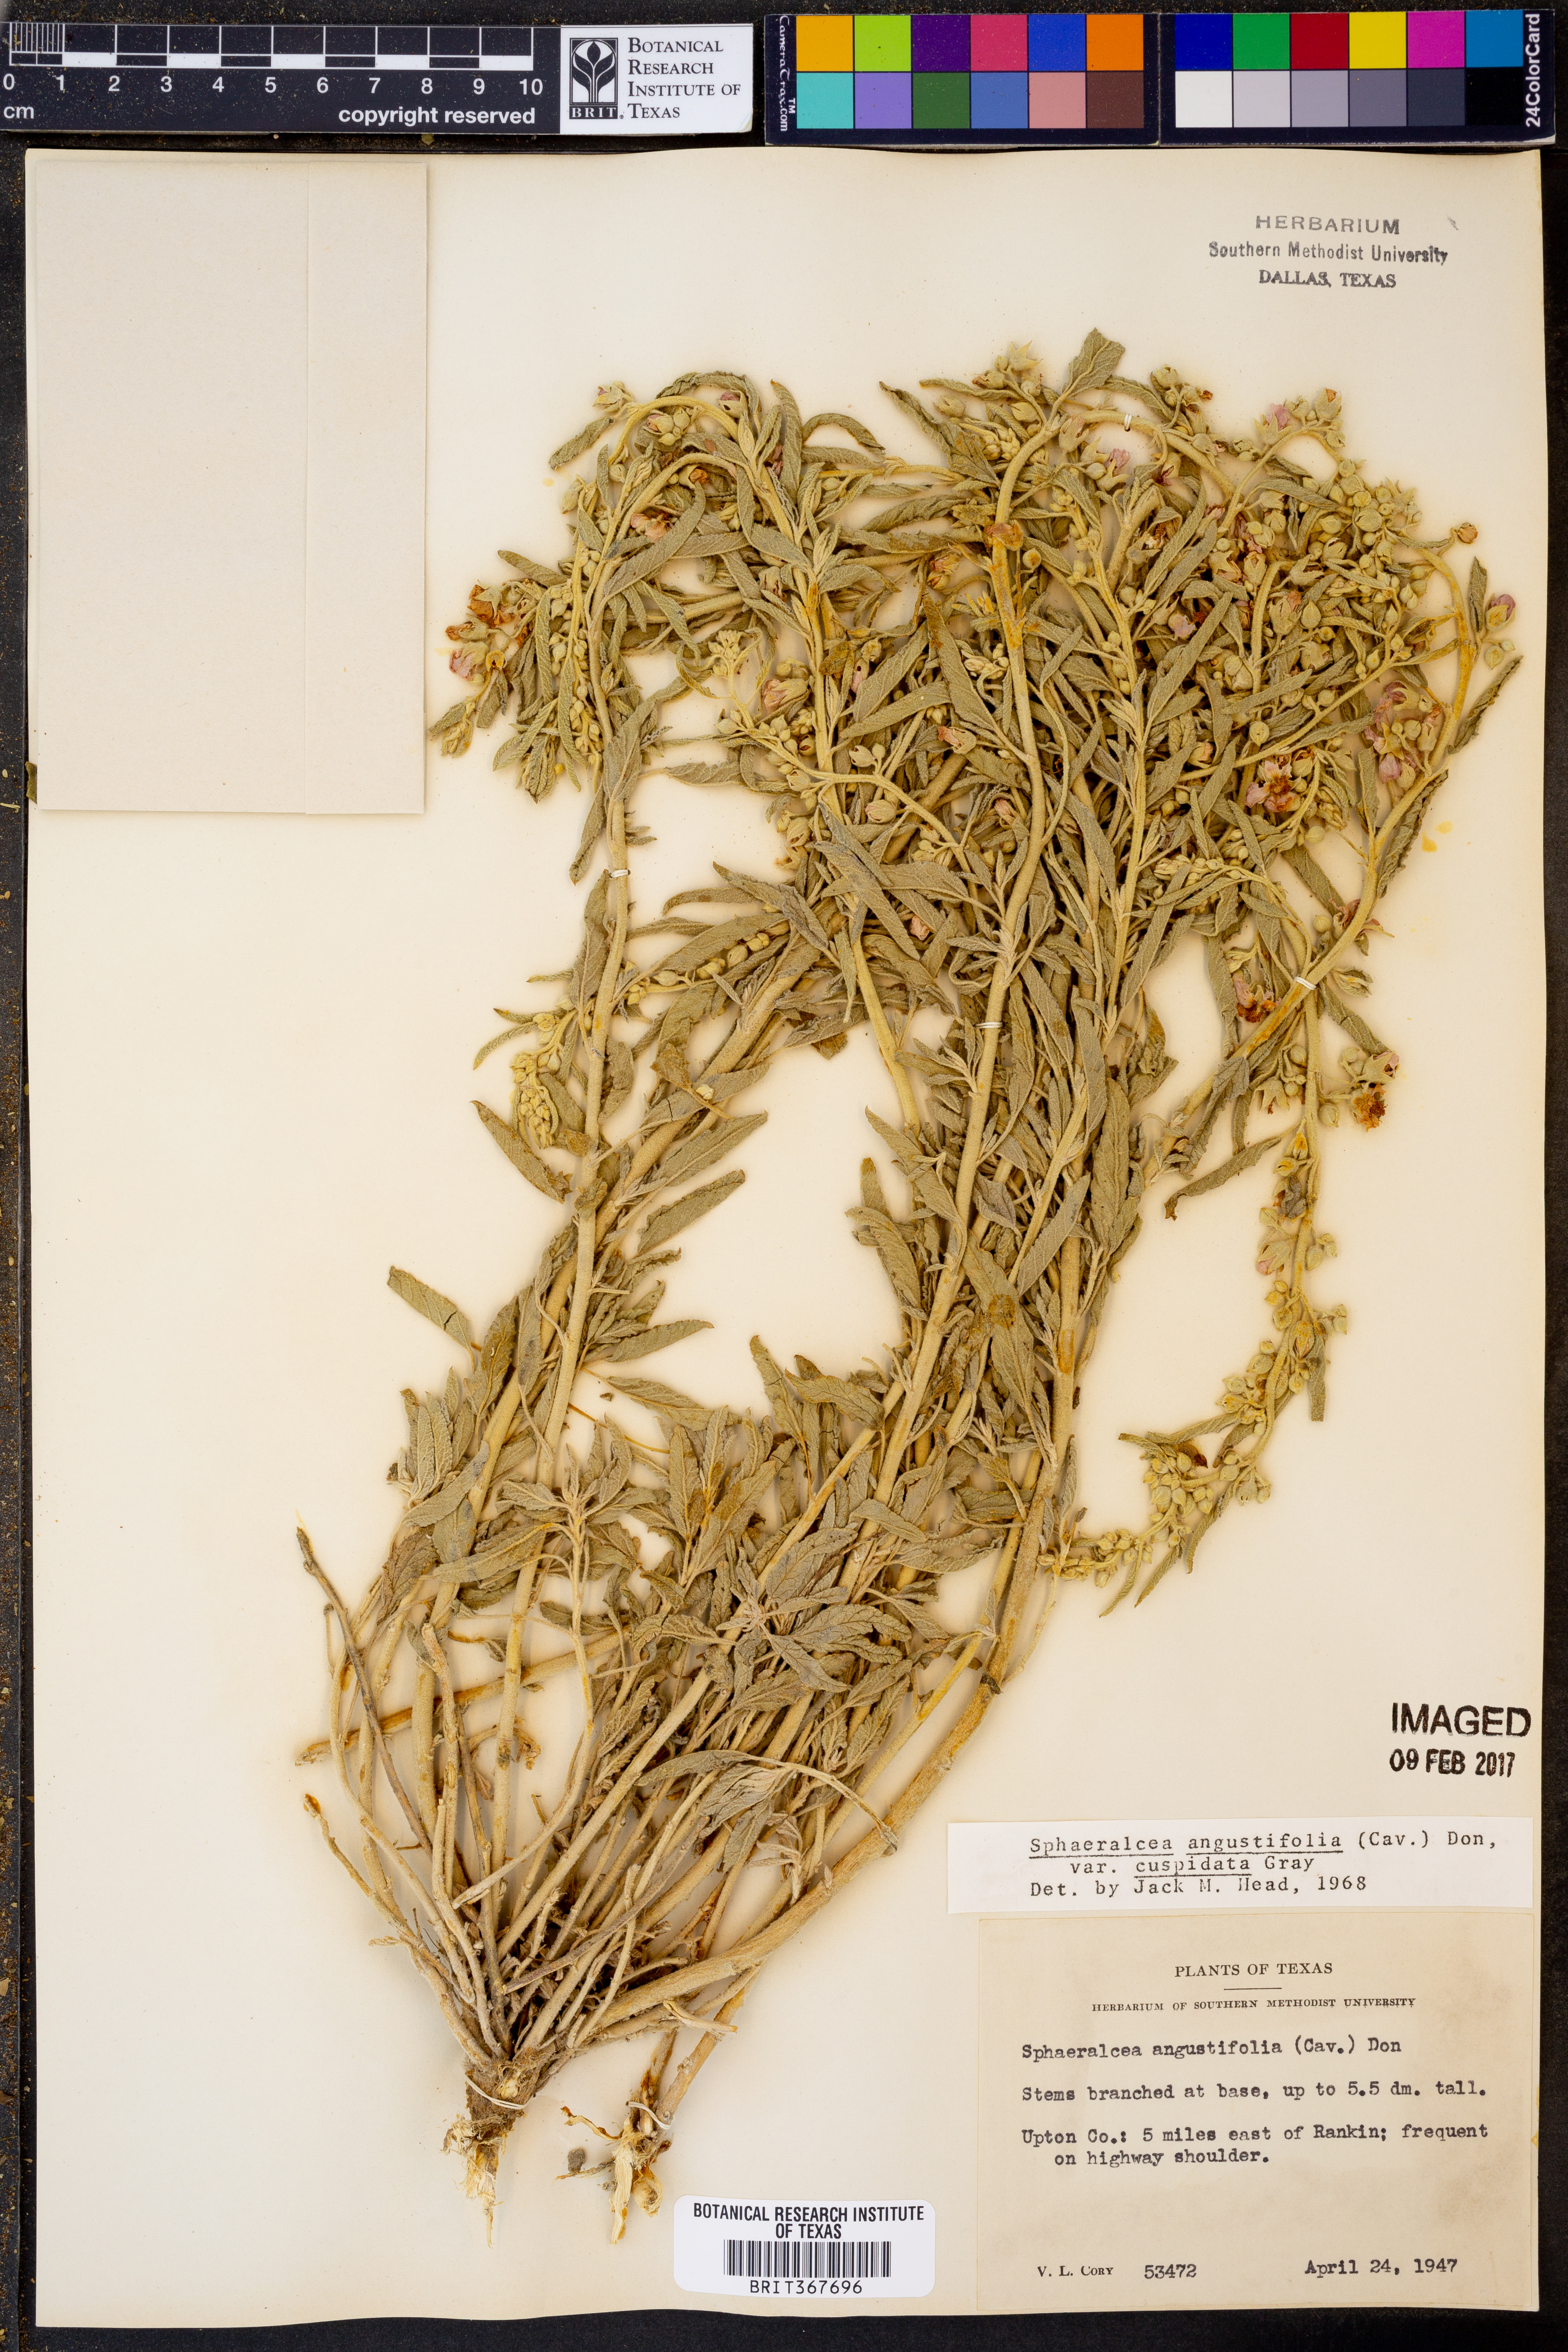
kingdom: Plantae
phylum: Tracheophyta
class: Magnoliopsida
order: Malvales
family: Malvaceae
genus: Sphaeralcea
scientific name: Sphaeralcea angustifolia
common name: Copper globe-mallow
